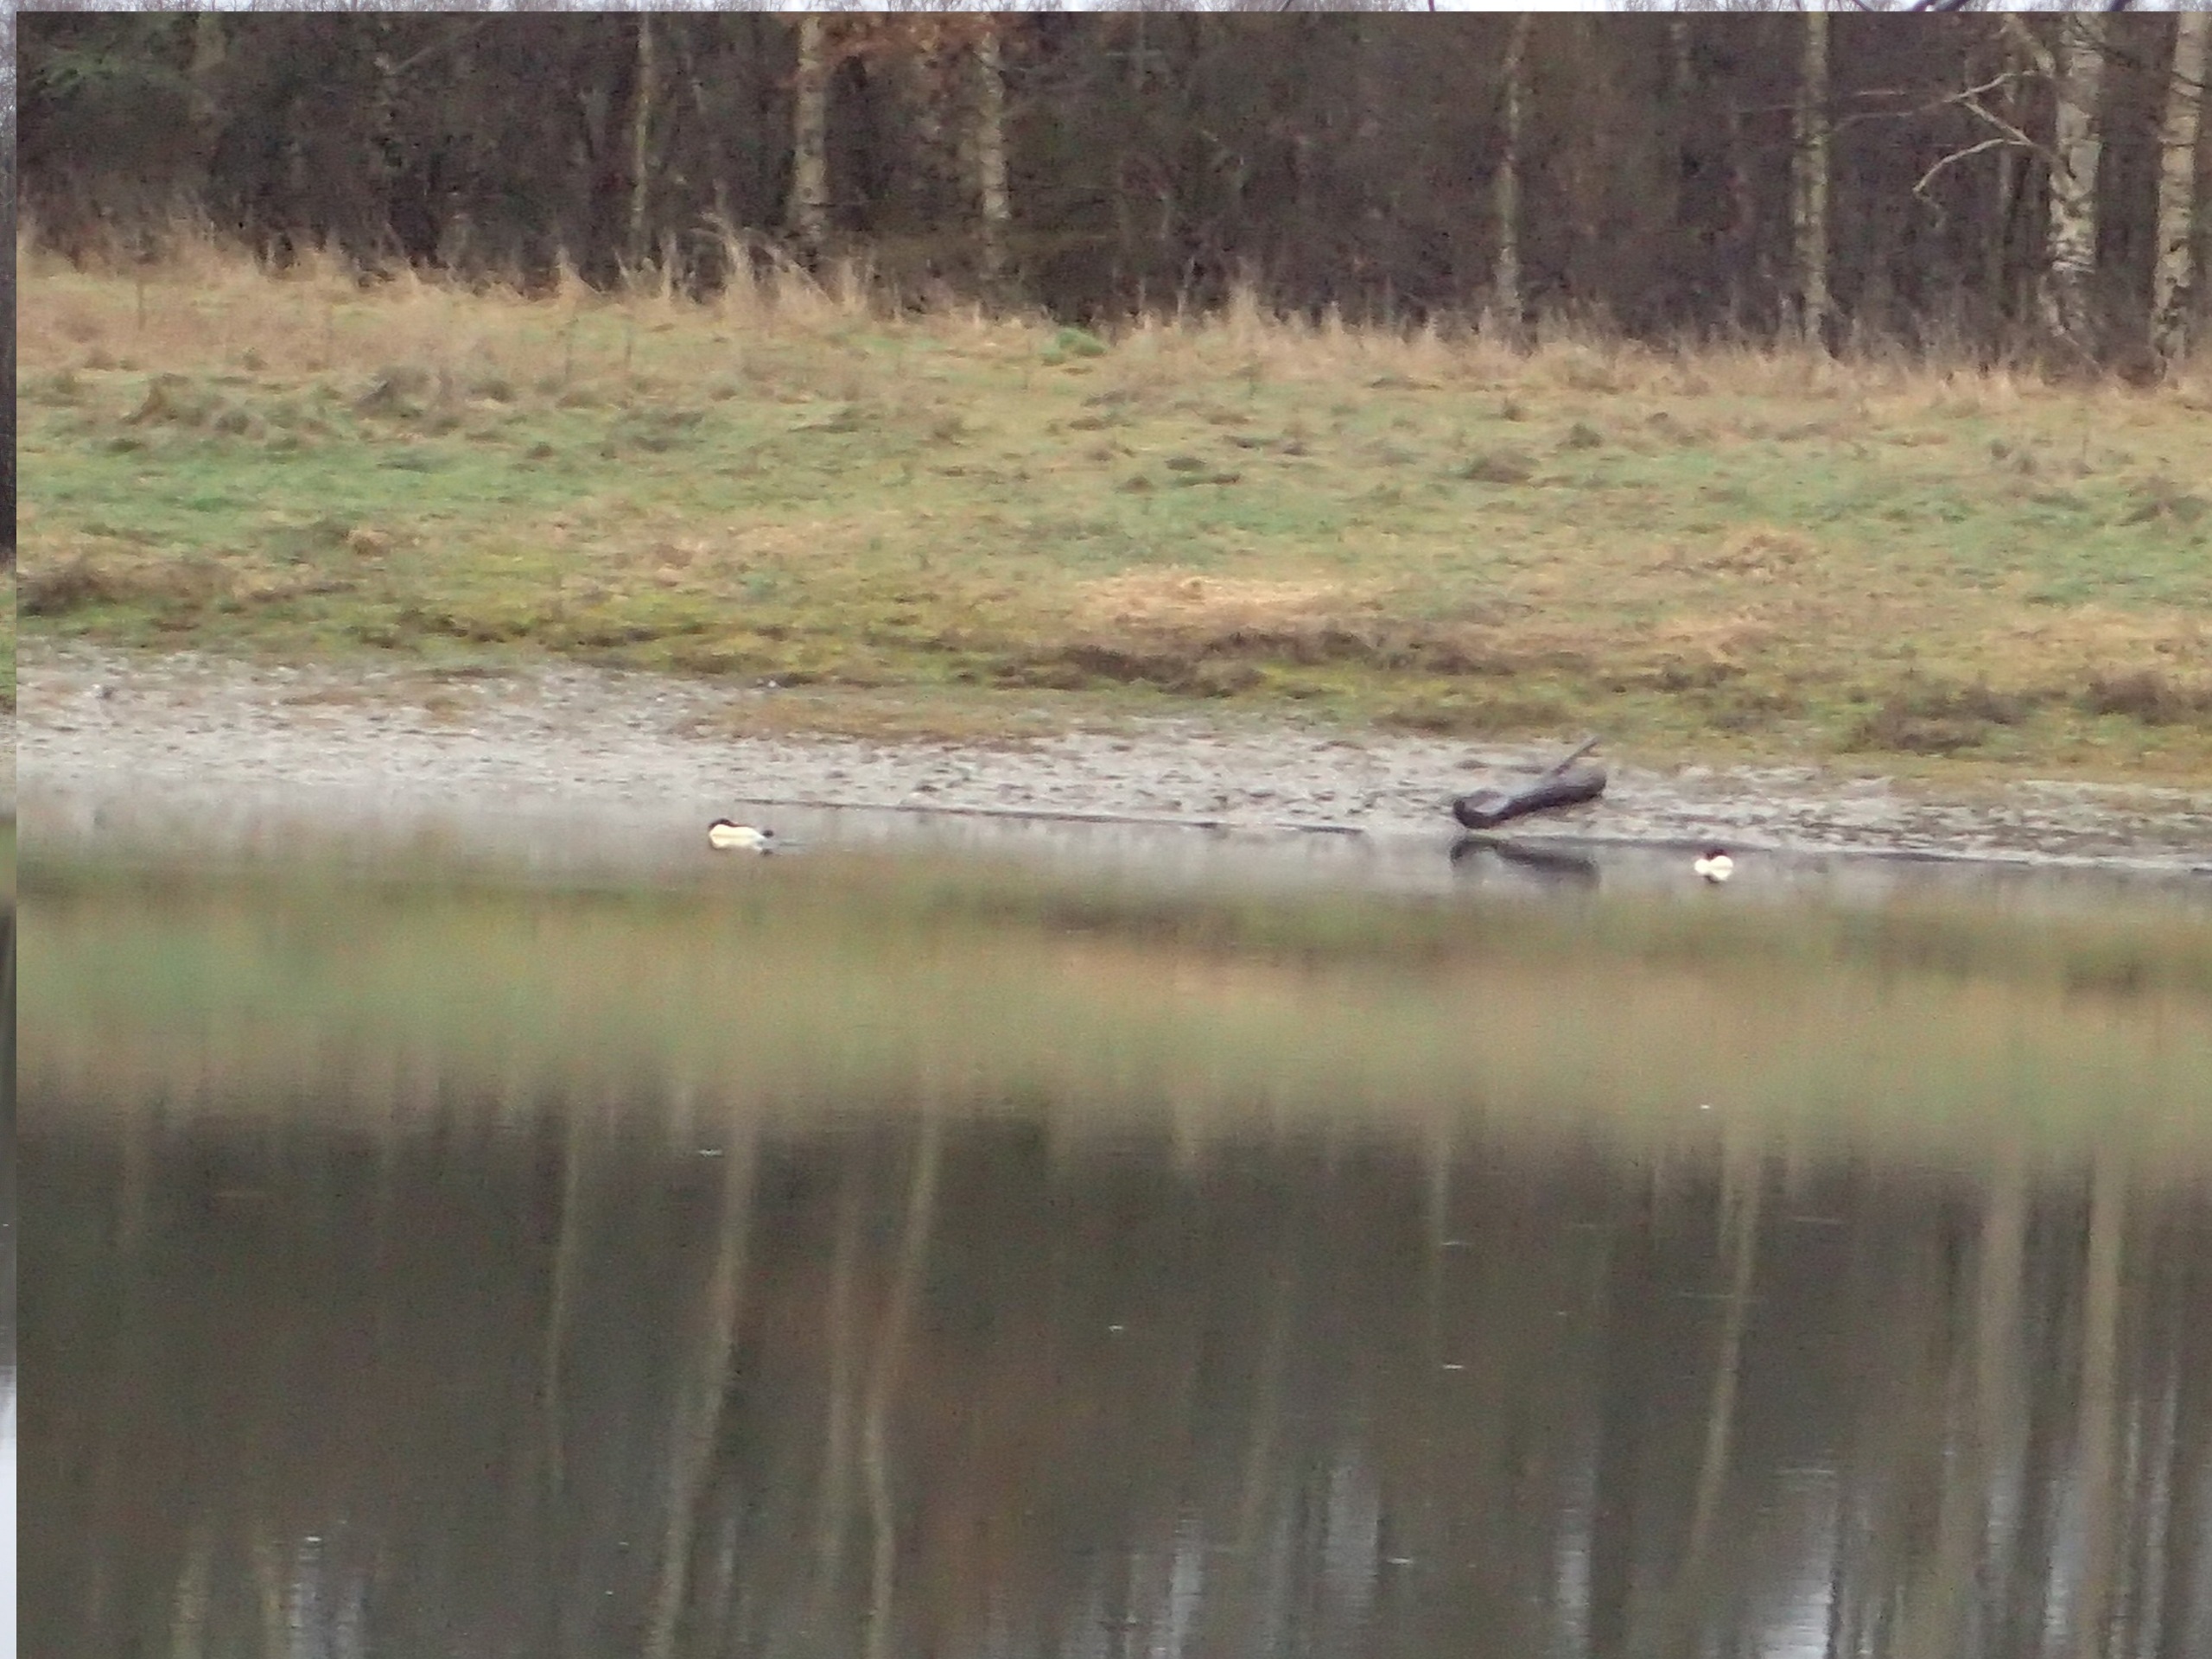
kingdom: Animalia
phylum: Chordata
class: Aves
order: Anseriformes
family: Anatidae
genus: Mergus
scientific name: Mergus merganser
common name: Stor skallesluger
